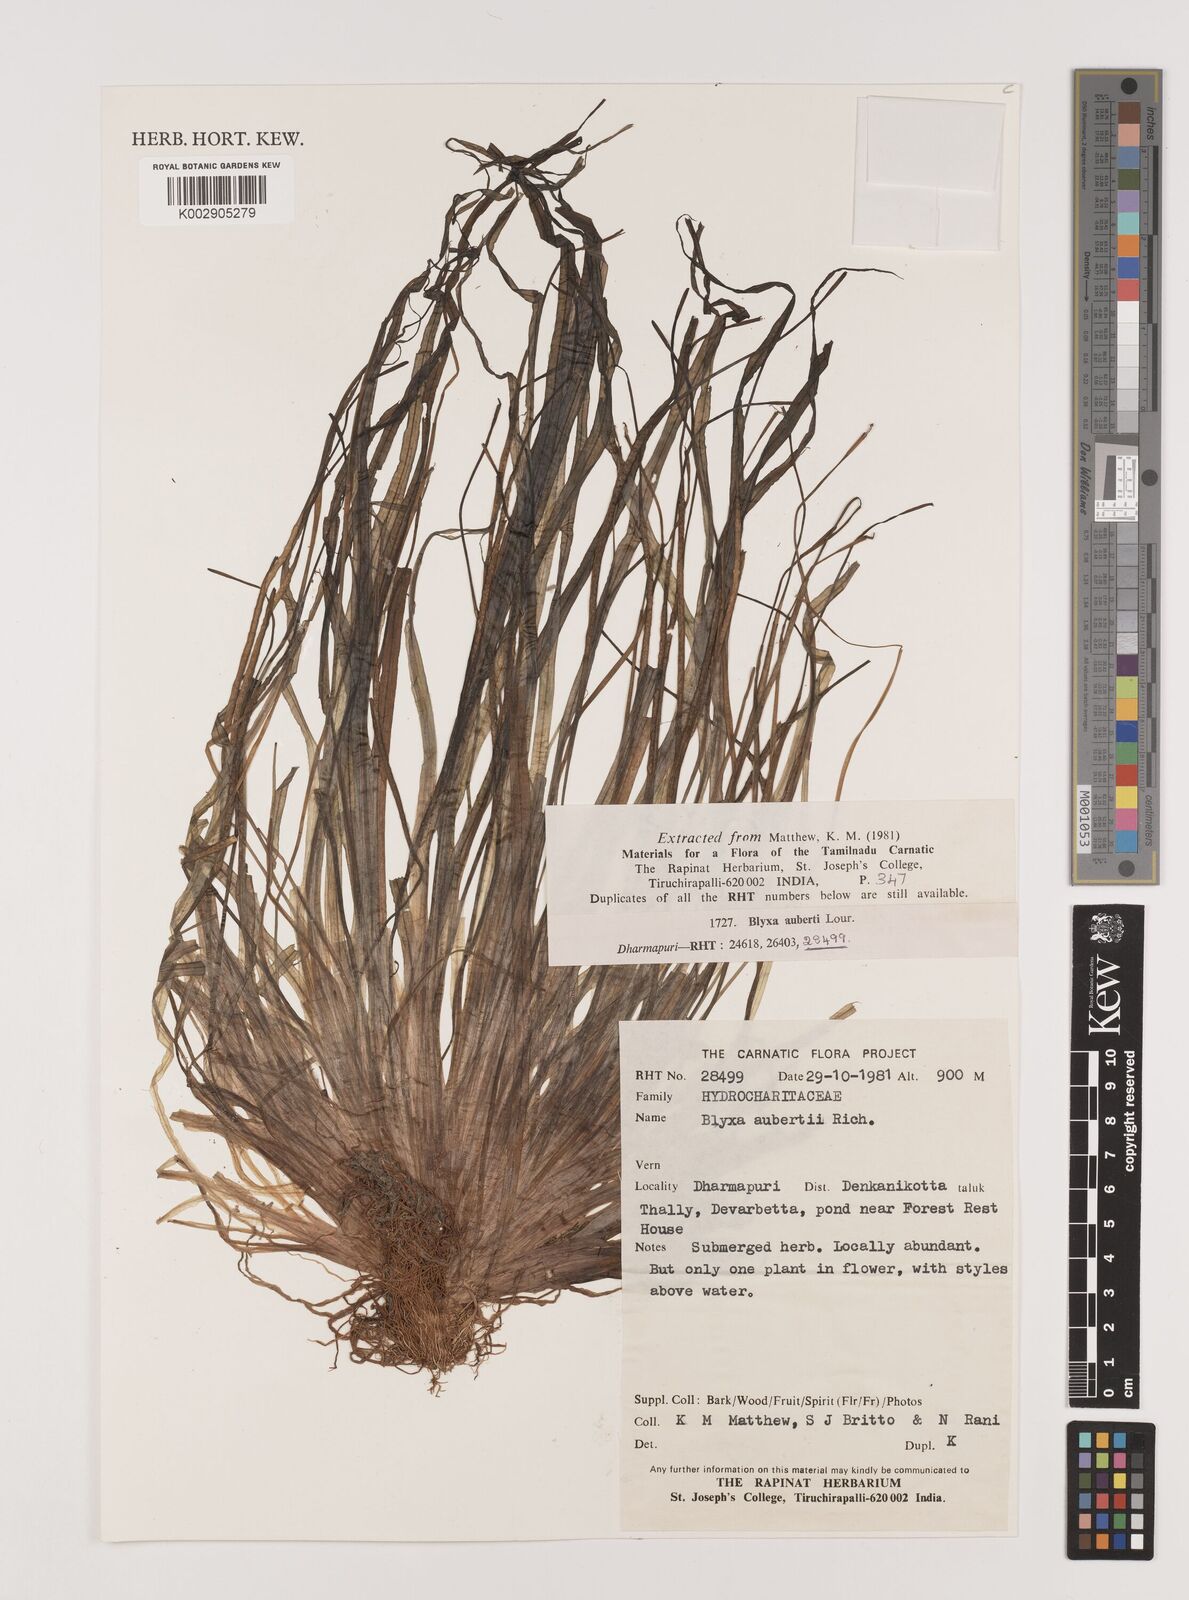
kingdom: Plantae
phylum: Tracheophyta
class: Liliopsida
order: Alismatales
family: Hydrocharitaceae
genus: Blyxa
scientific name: Blyxa aubertii
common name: Roundfruit blyxa
